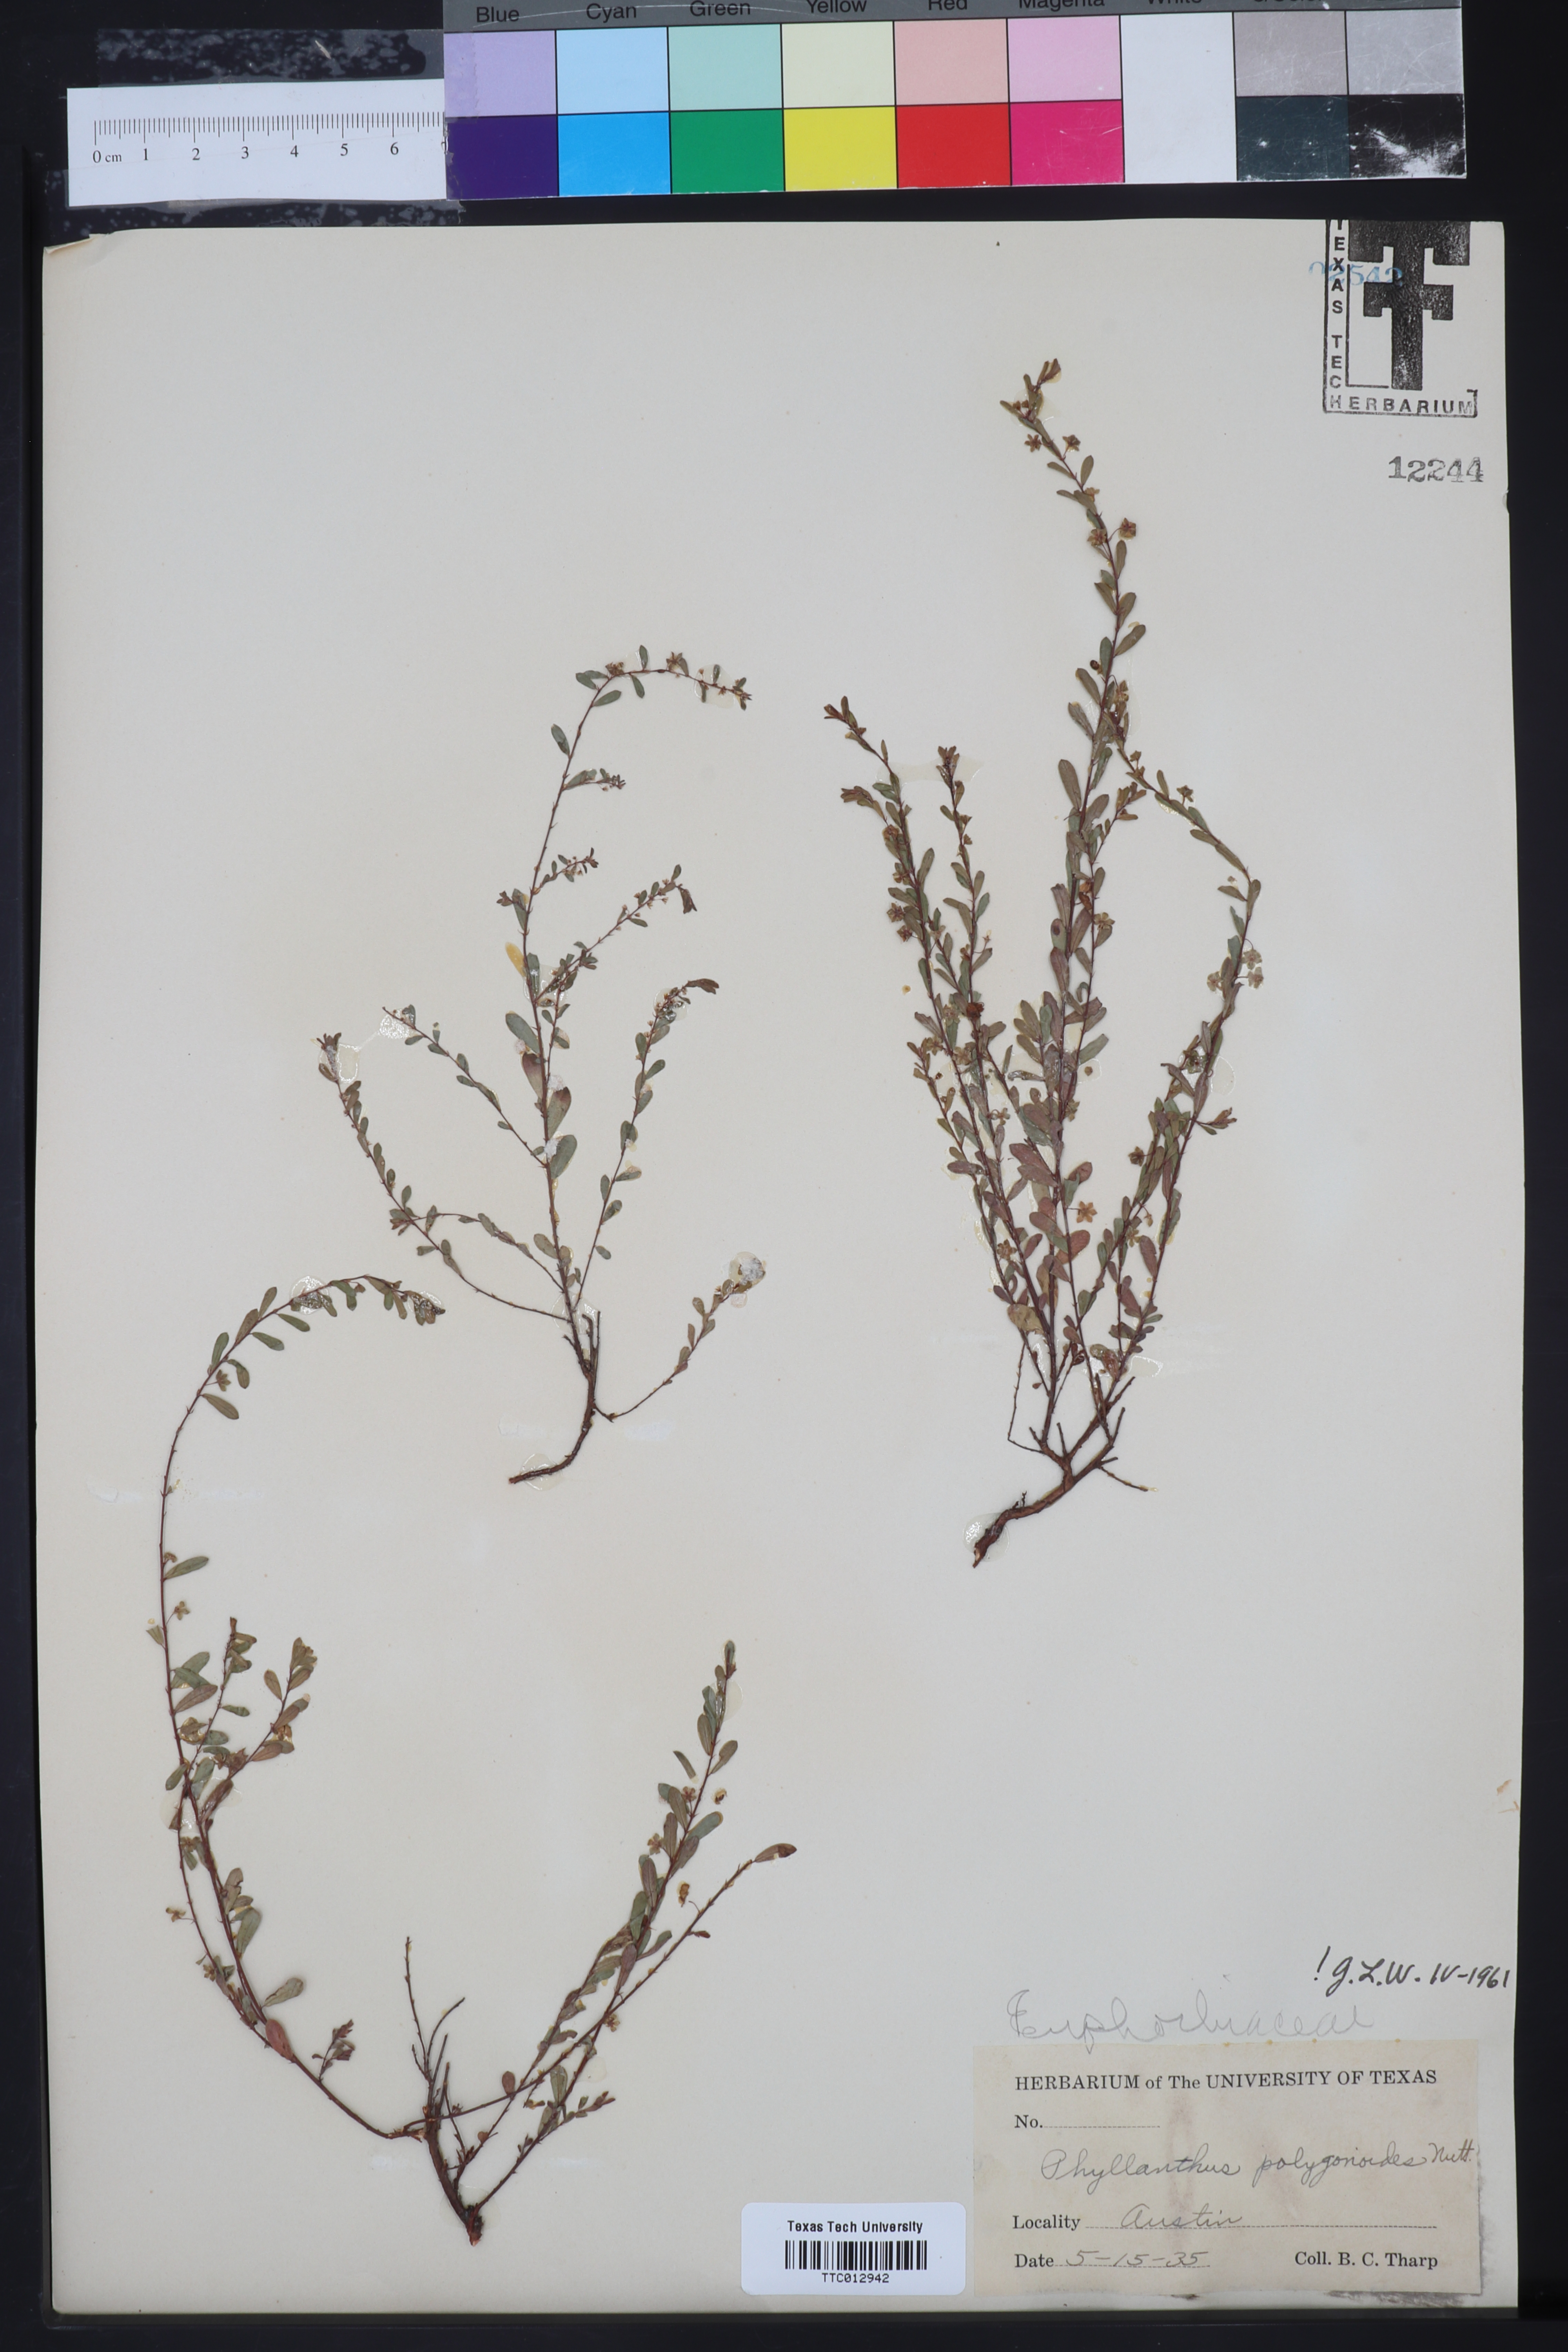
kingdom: Plantae
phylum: Tracheophyta
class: Magnoliopsida
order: Malpighiales
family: Phyllanthaceae
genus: Phyllanthus
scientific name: Phyllanthus polygonoides
